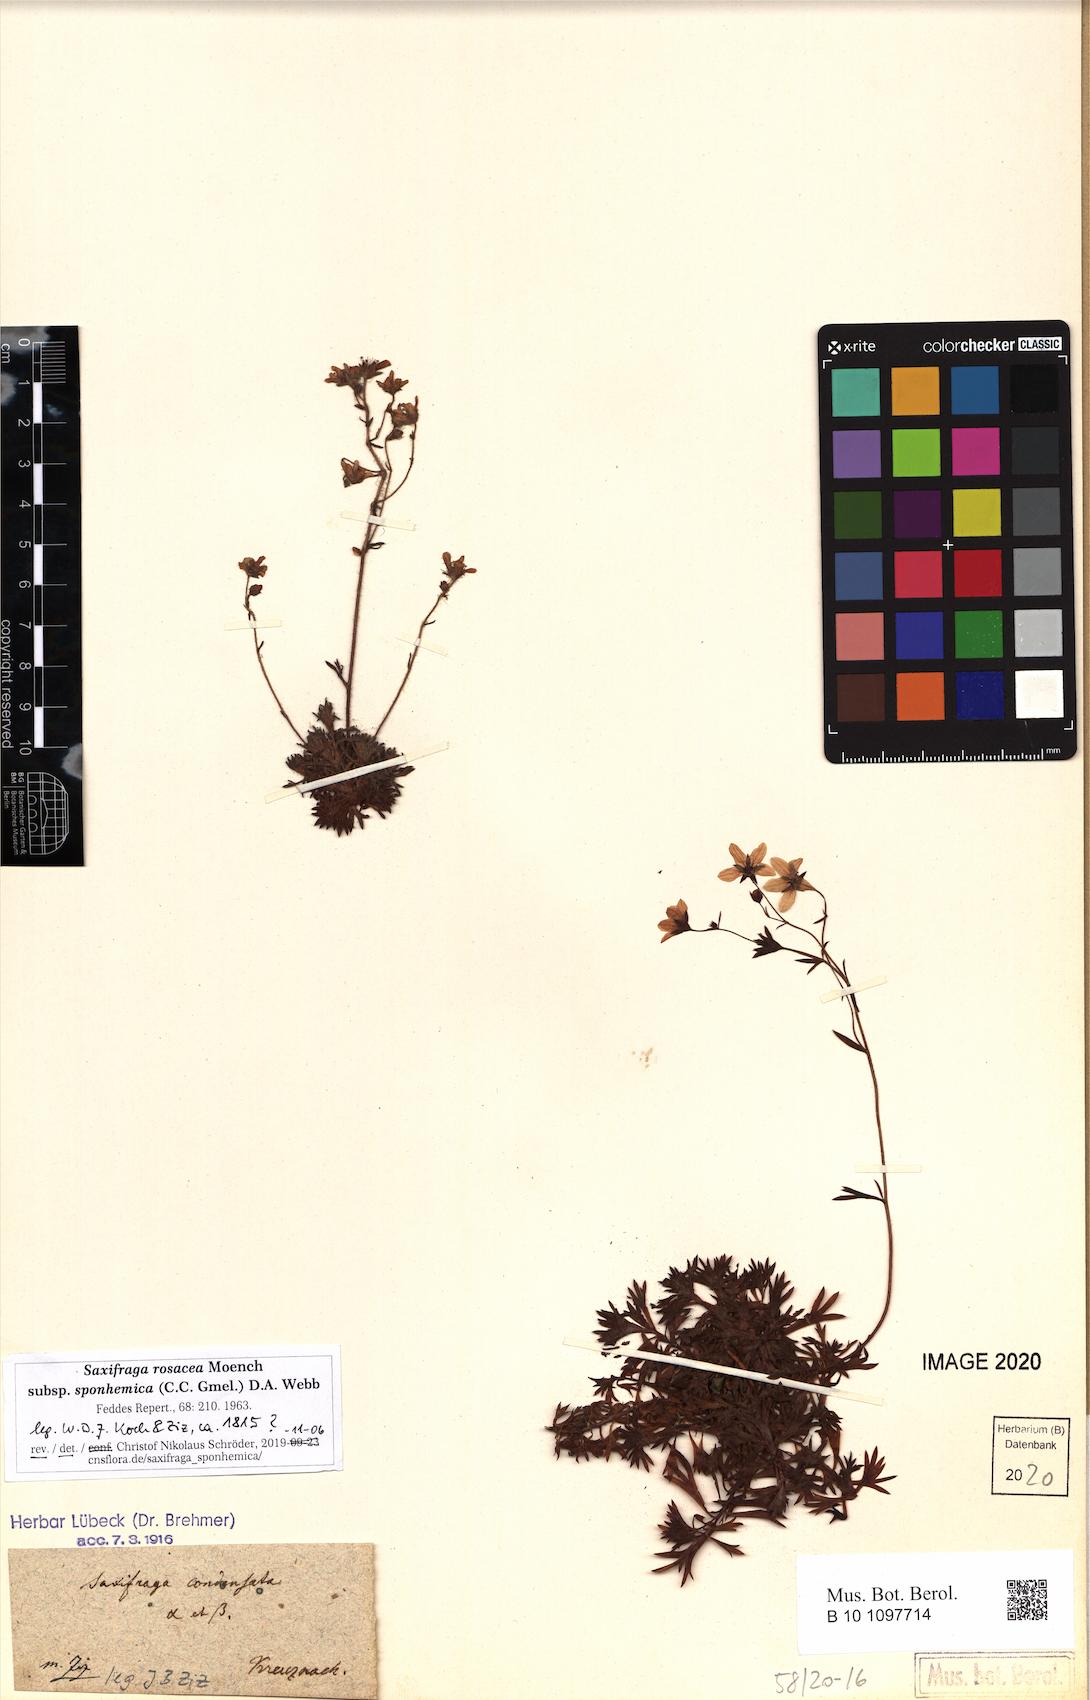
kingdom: Plantae
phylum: Tracheophyta
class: Magnoliopsida
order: Saxifragales
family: Saxifragaceae
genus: Saxifraga
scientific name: Saxifraga rosacea
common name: Irish saxifrage
